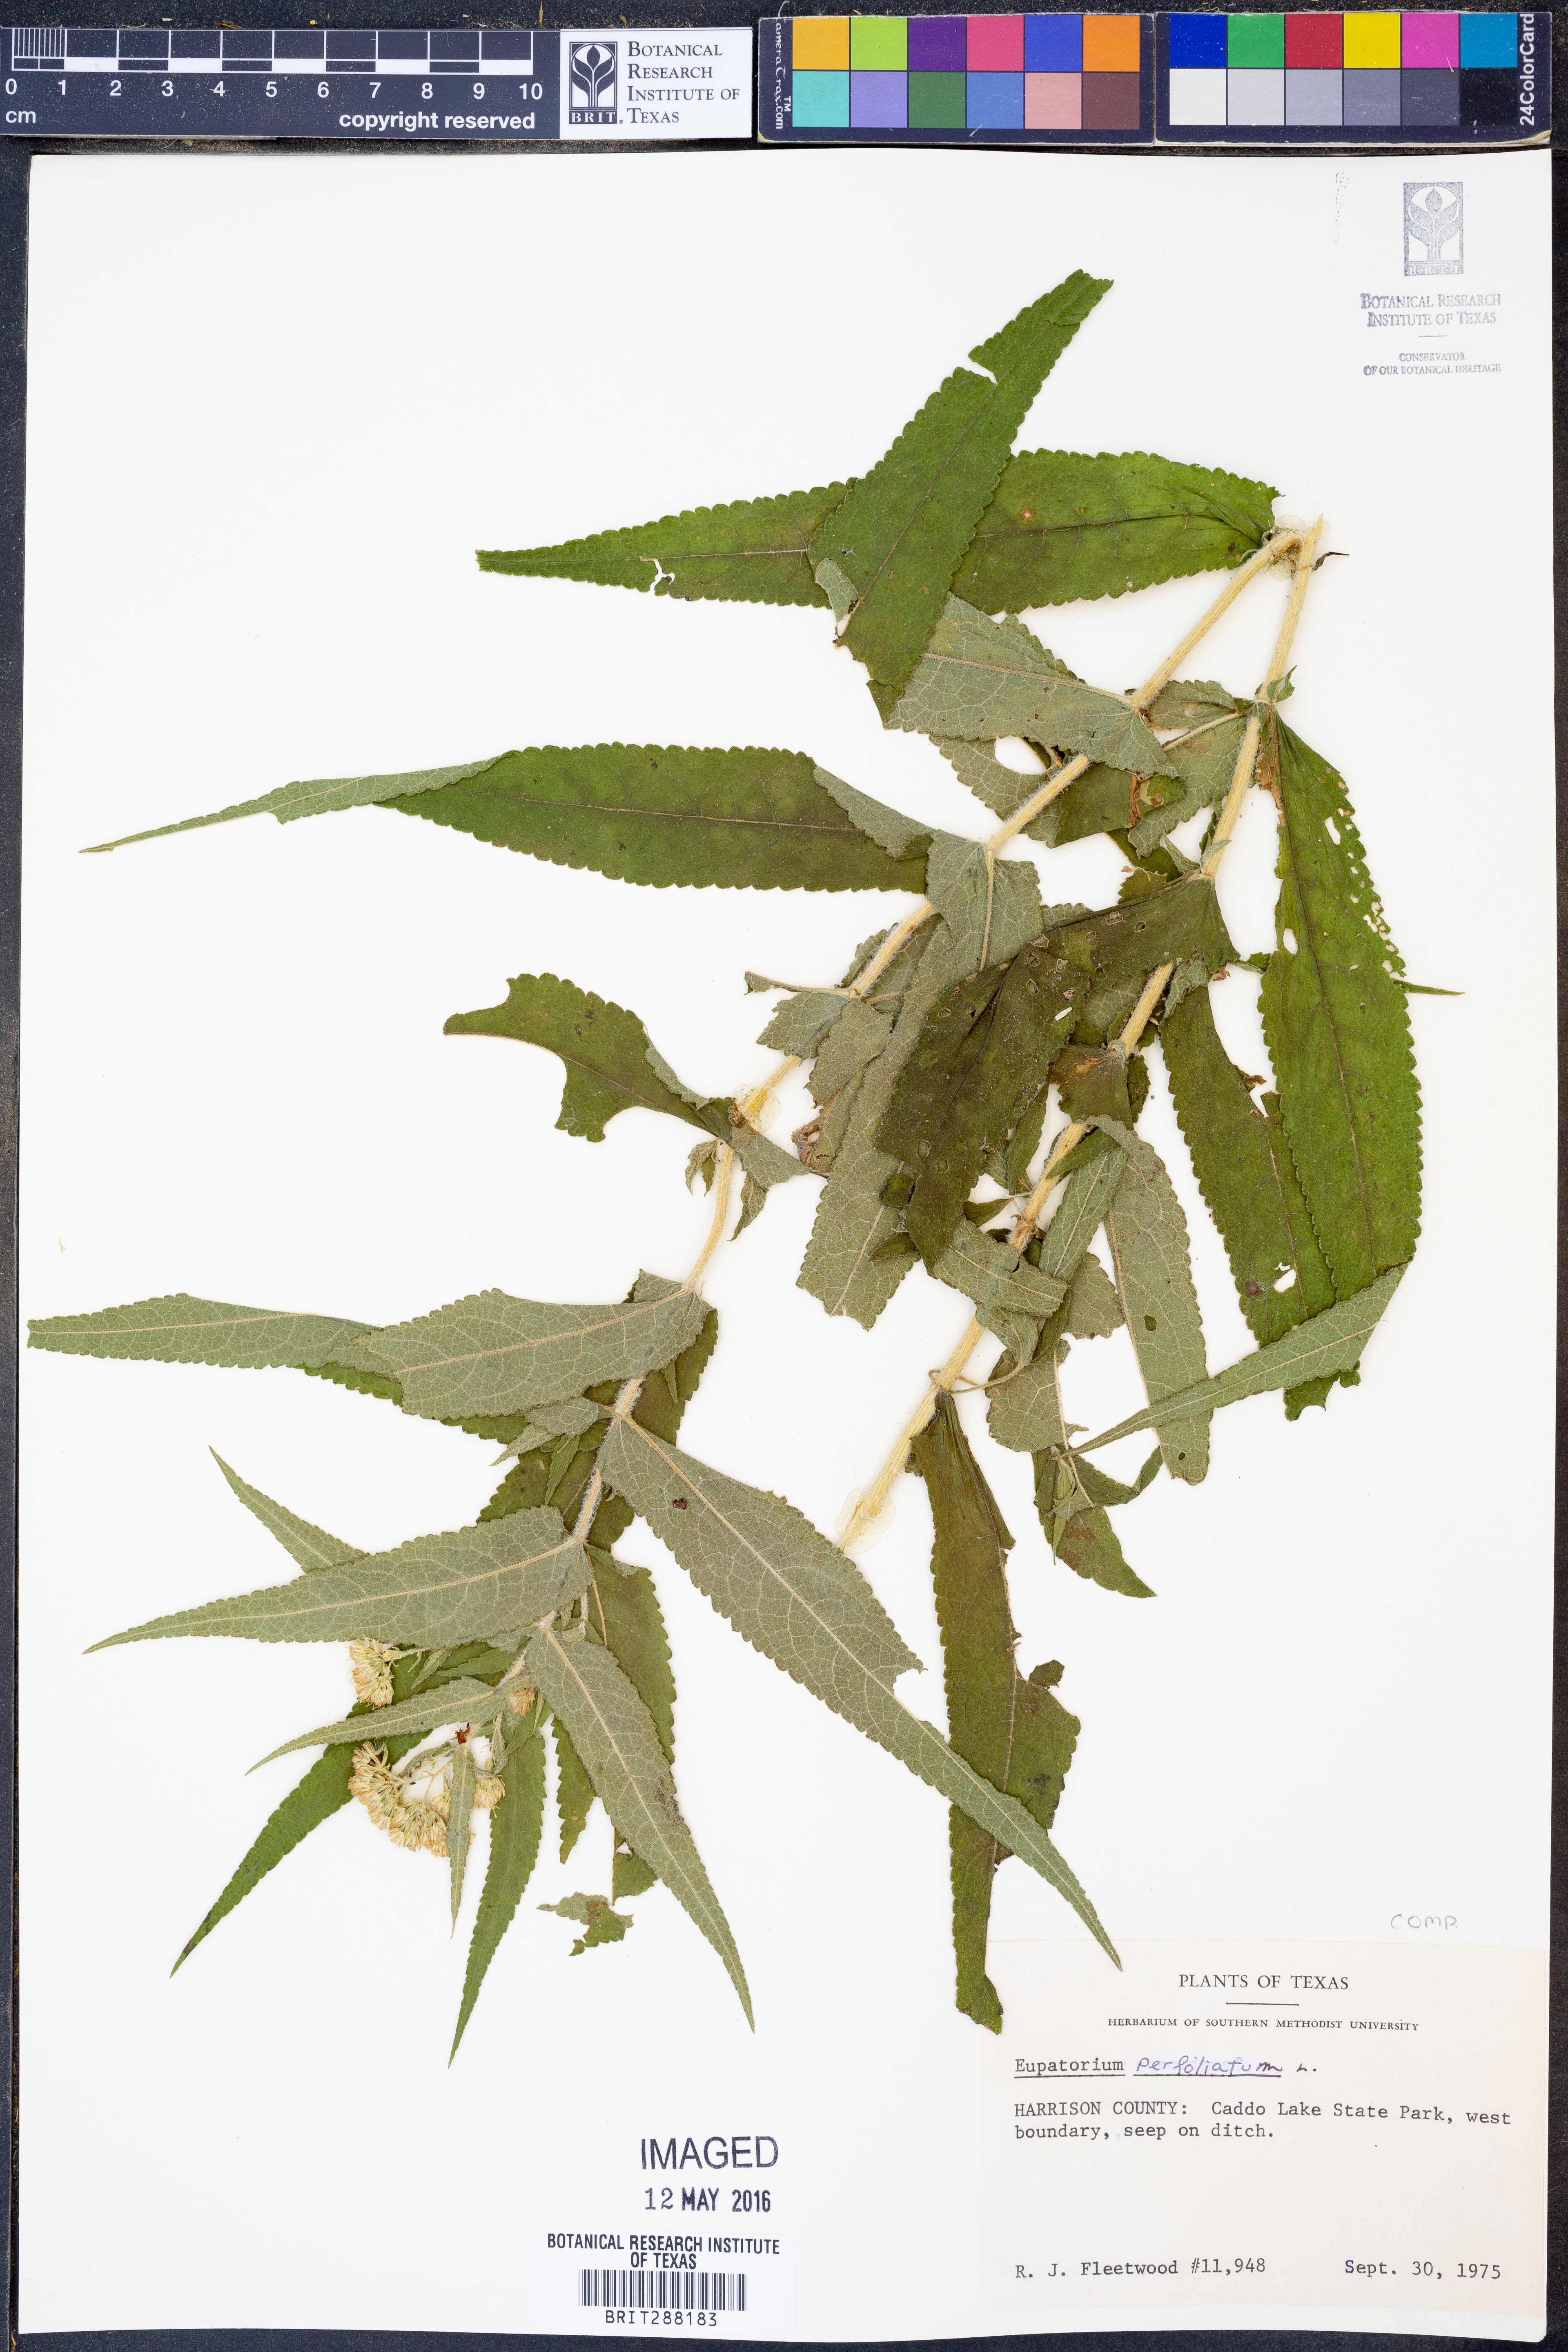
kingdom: Plantae
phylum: Tracheophyta
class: Magnoliopsida
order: Asterales
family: Asteraceae
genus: Eupatorium
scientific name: Eupatorium perfoliatum
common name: Boneset
